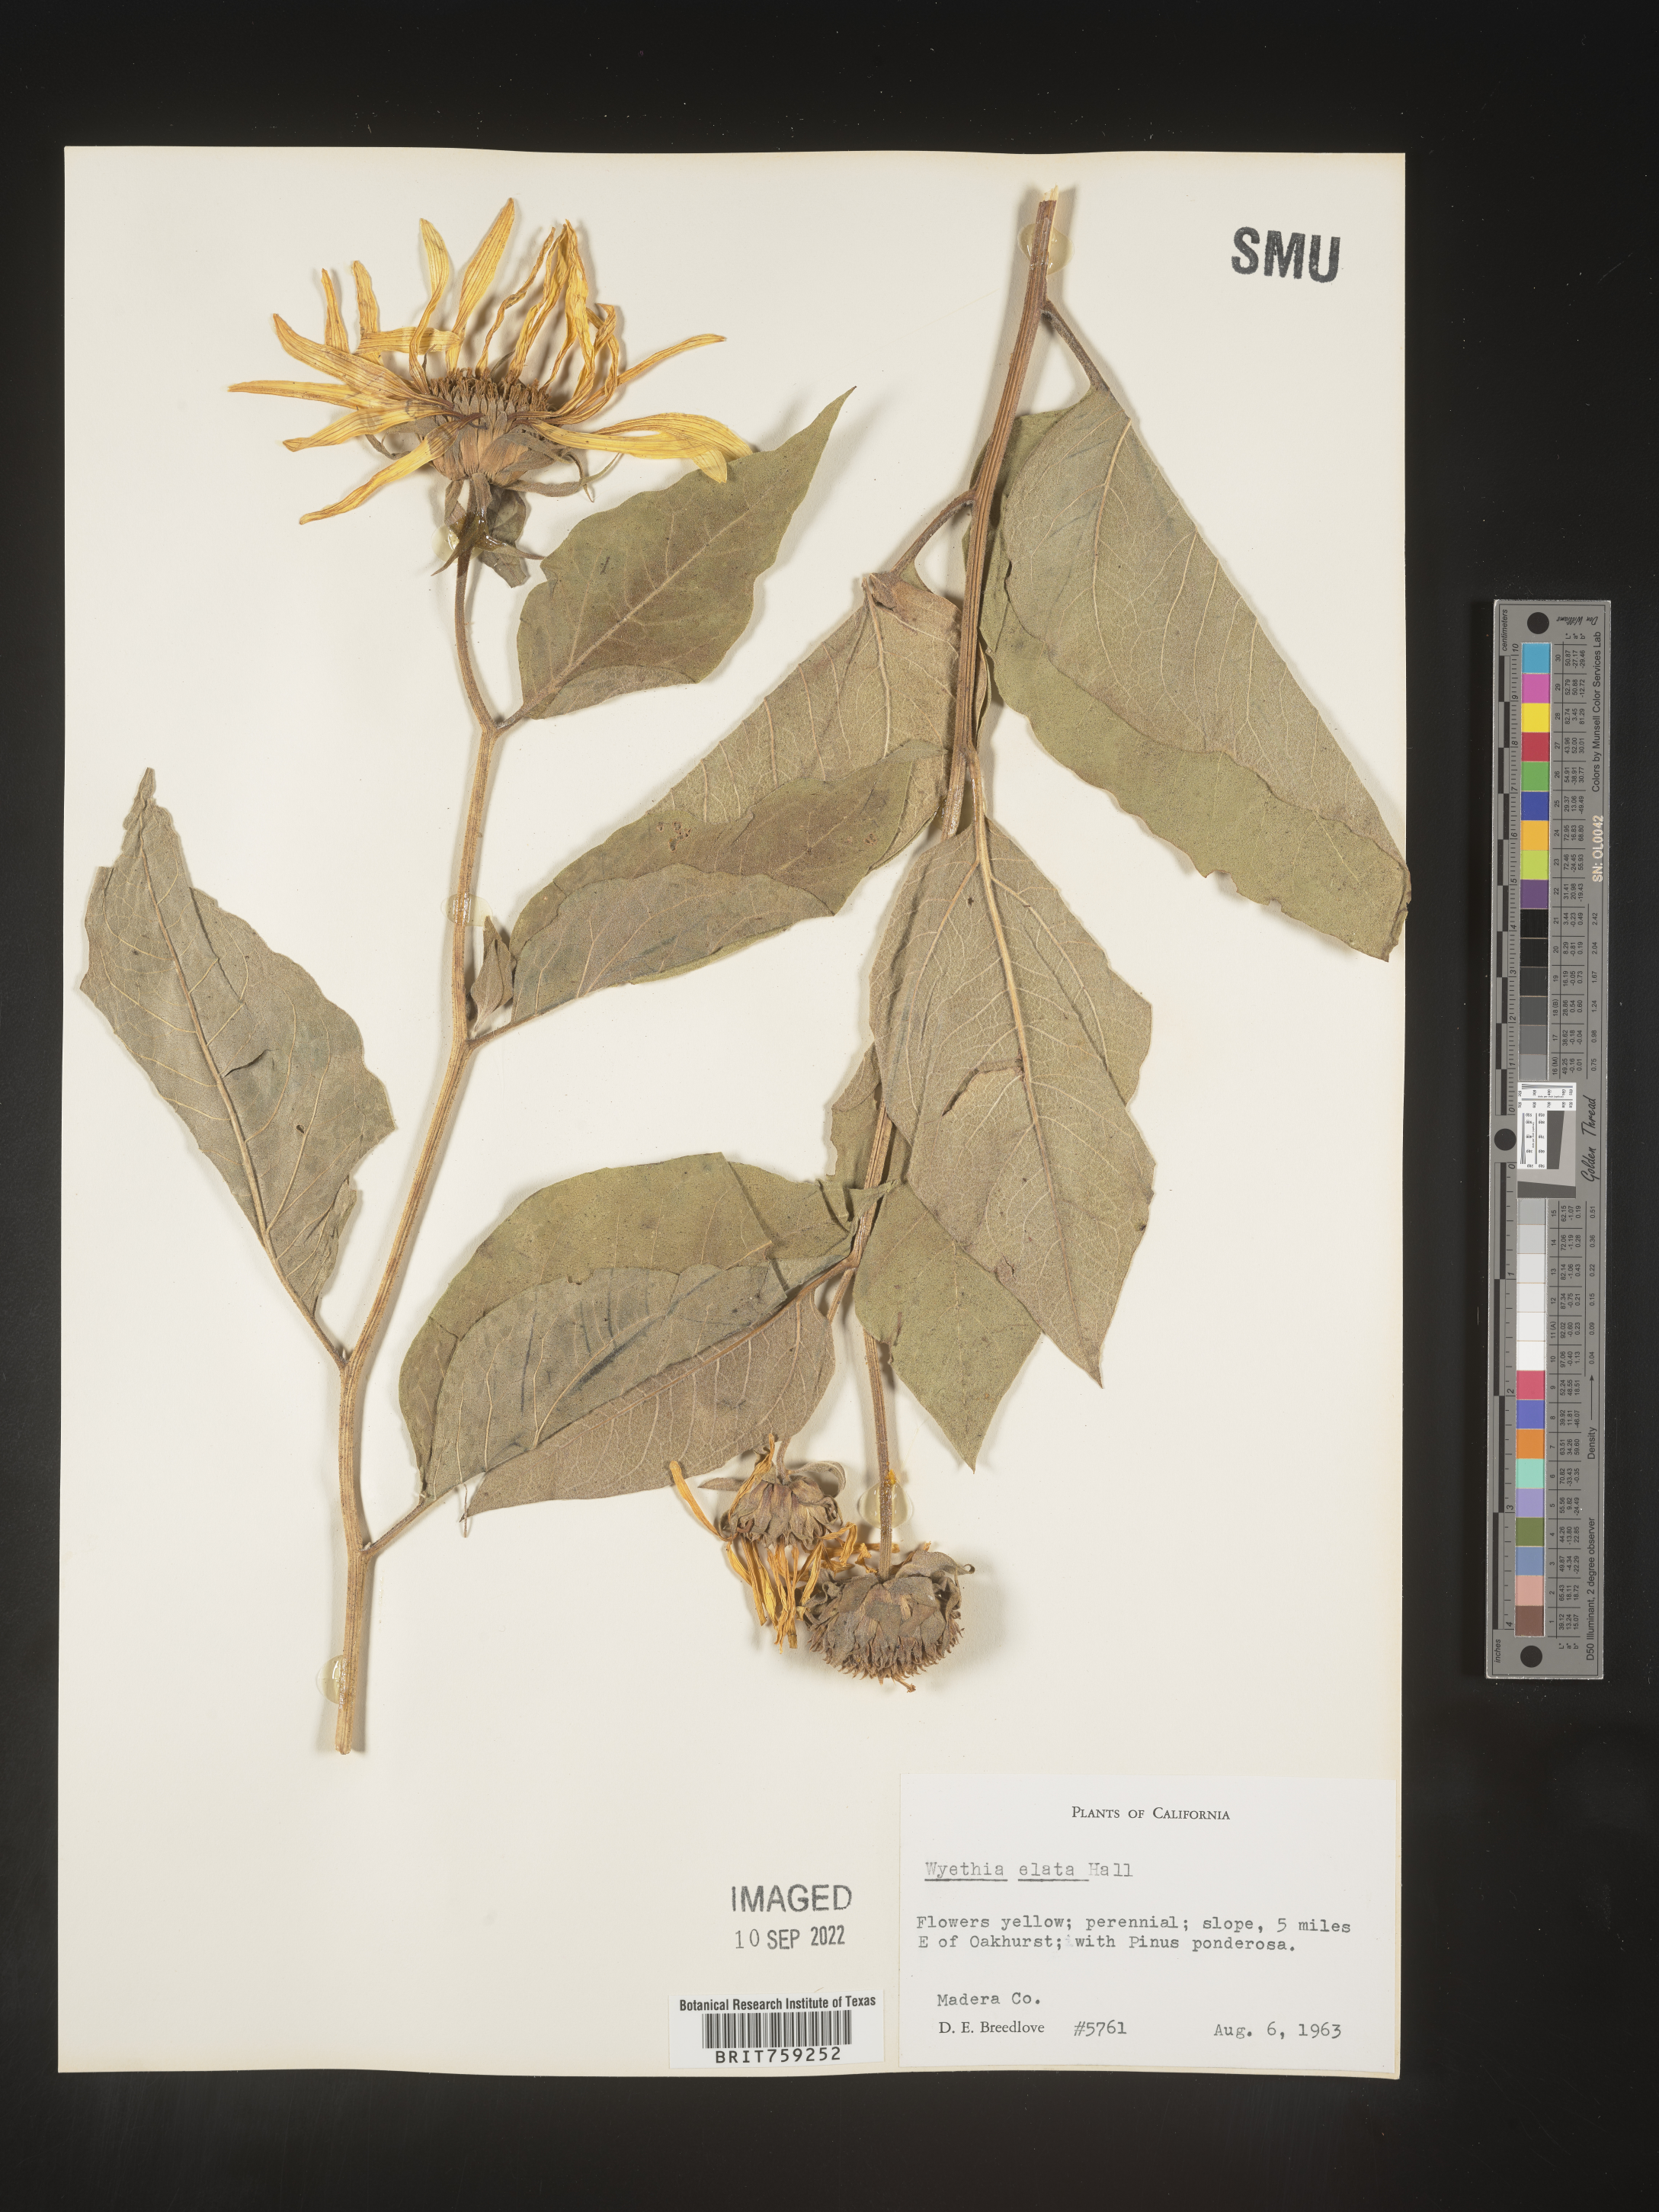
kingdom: Plantae
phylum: Tracheophyta
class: Magnoliopsida
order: Asterales
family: Asteraceae
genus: Agnorhiza
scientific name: Agnorhiza elata
